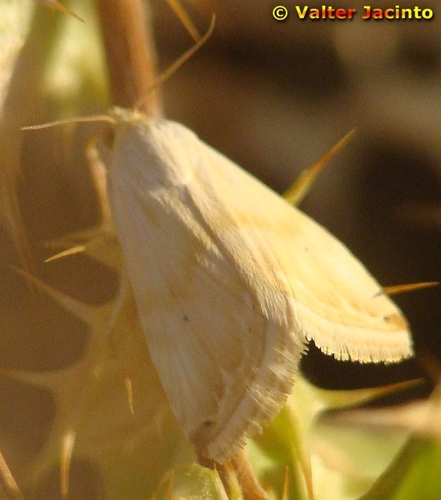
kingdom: Animalia
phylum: Arthropoda
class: Insecta
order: Lepidoptera
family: Noctuidae
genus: Eublemma
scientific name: Eublemma ostrina
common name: Purple marbled
